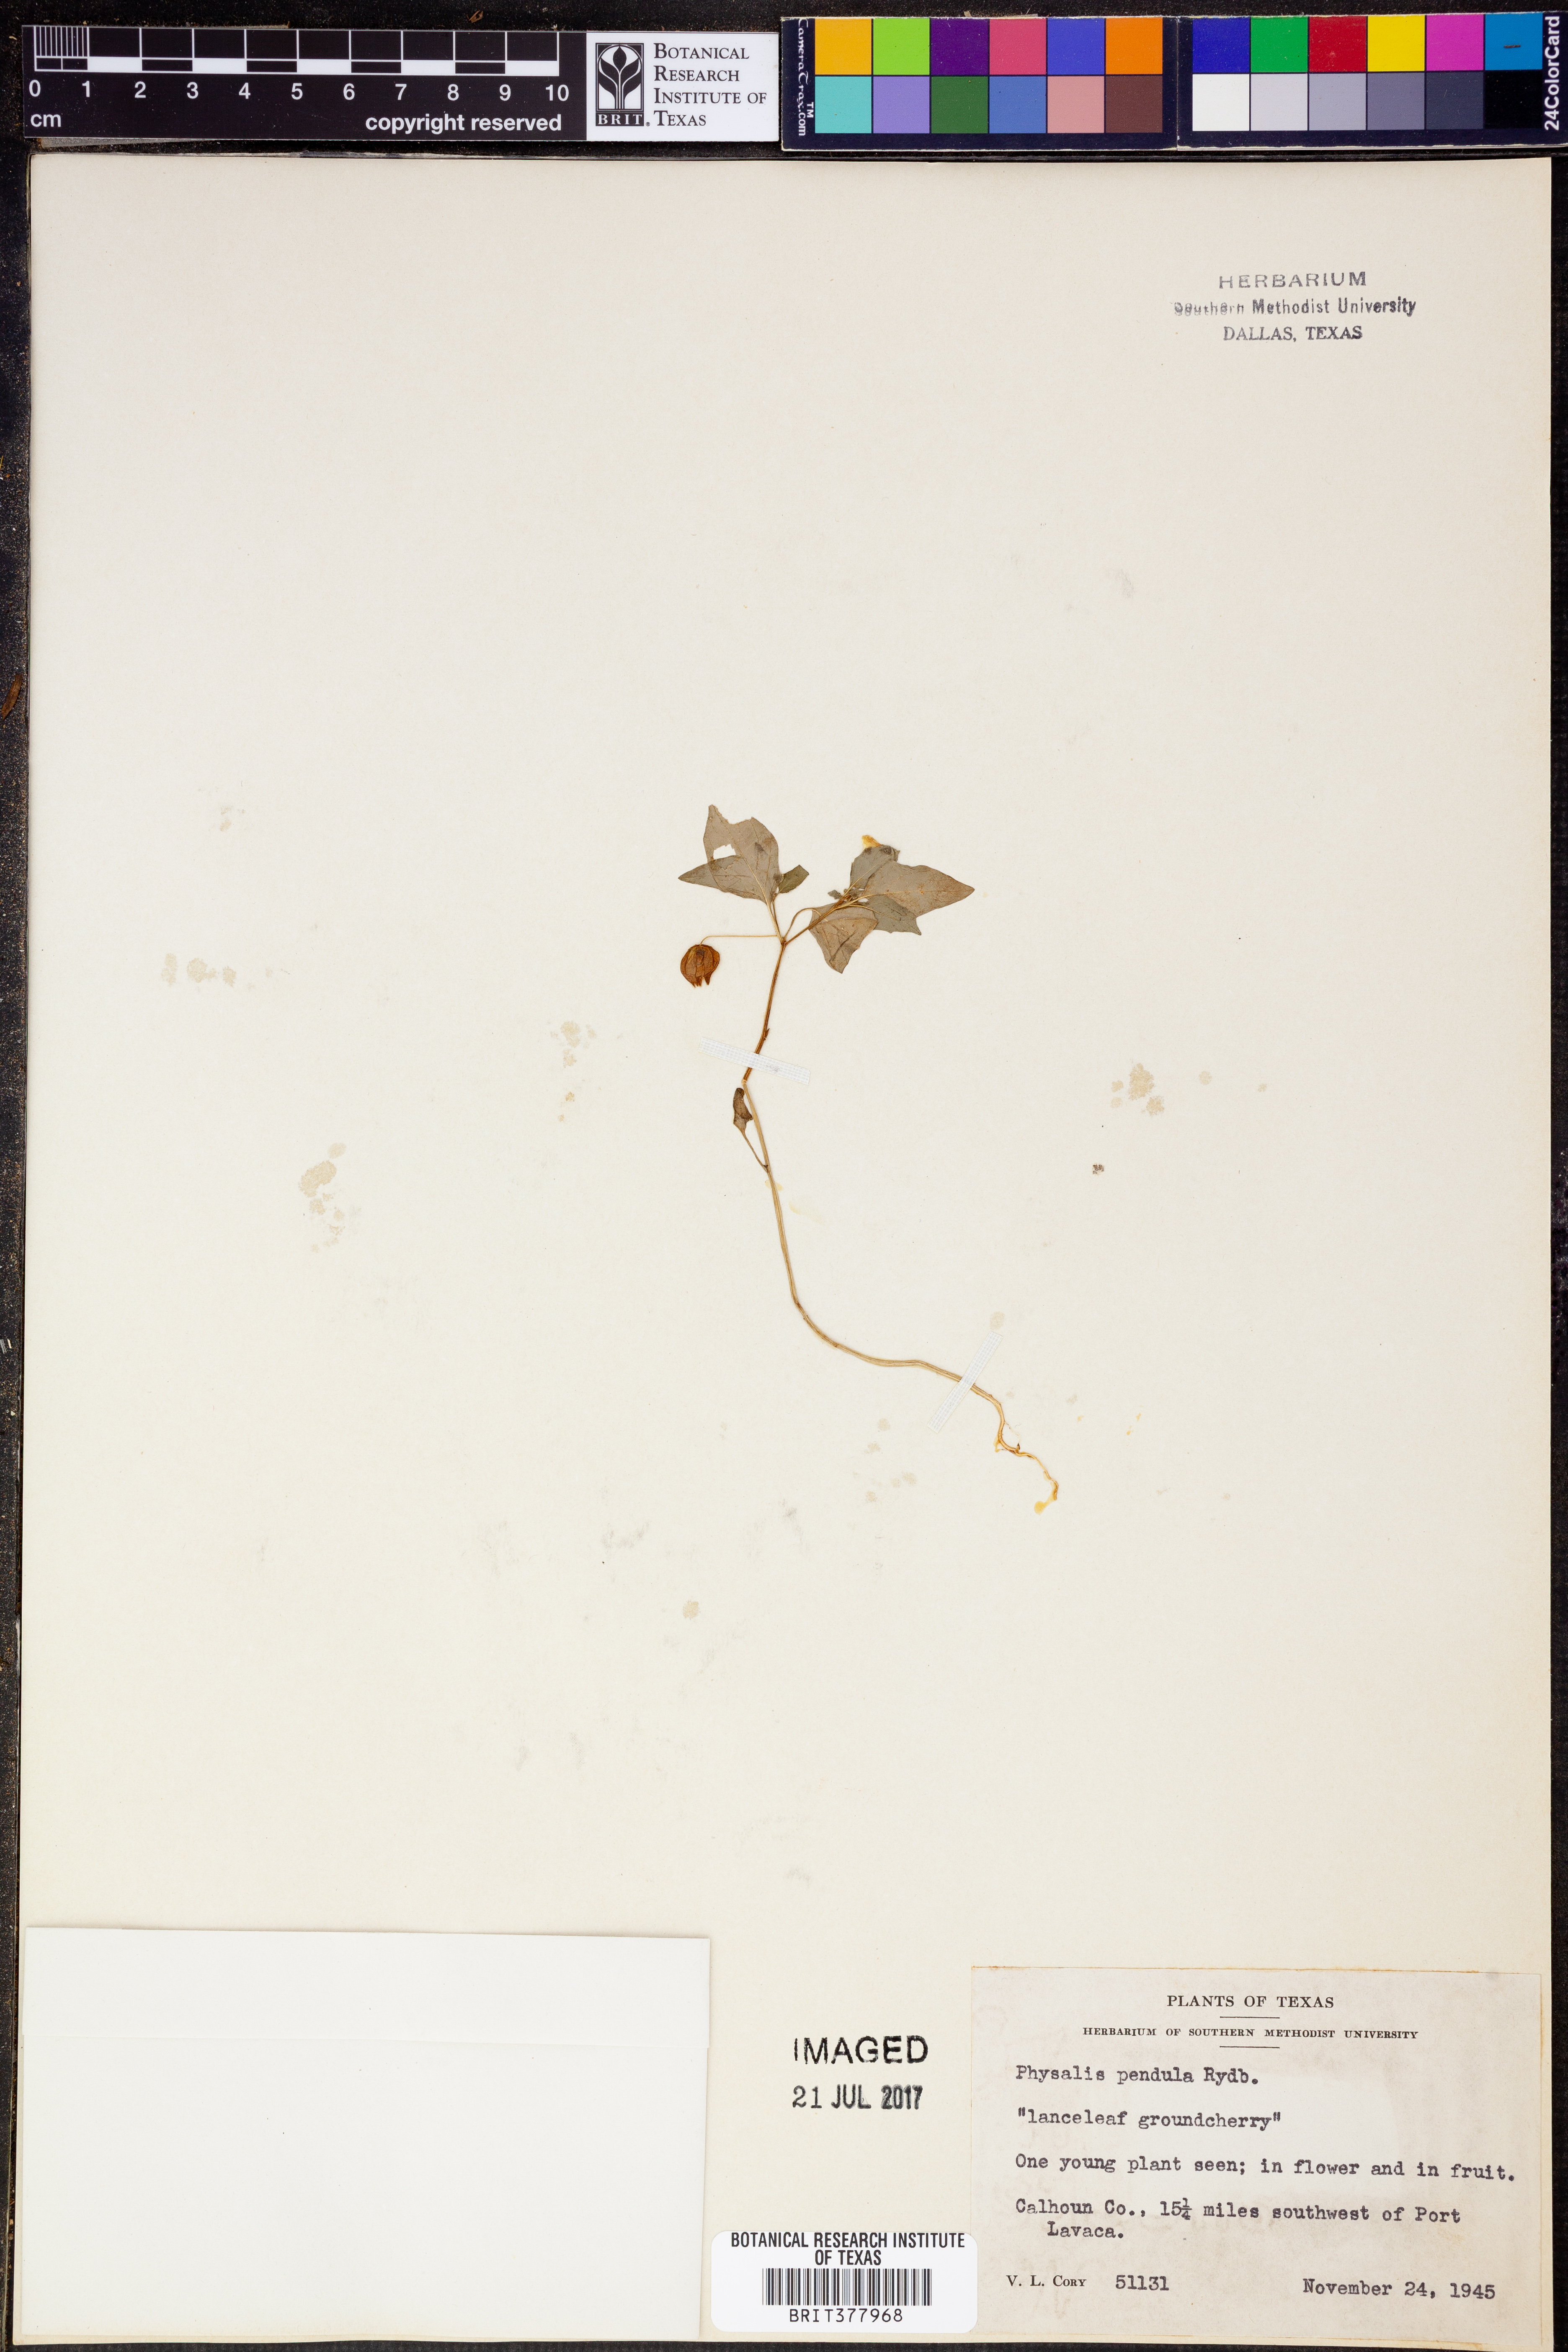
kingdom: Plantae
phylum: Tracheophyta
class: Magnoliopsida
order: Solanales
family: Solanaceae
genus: Physalis
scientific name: Physalis angulata
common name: Angular winter-cherry
